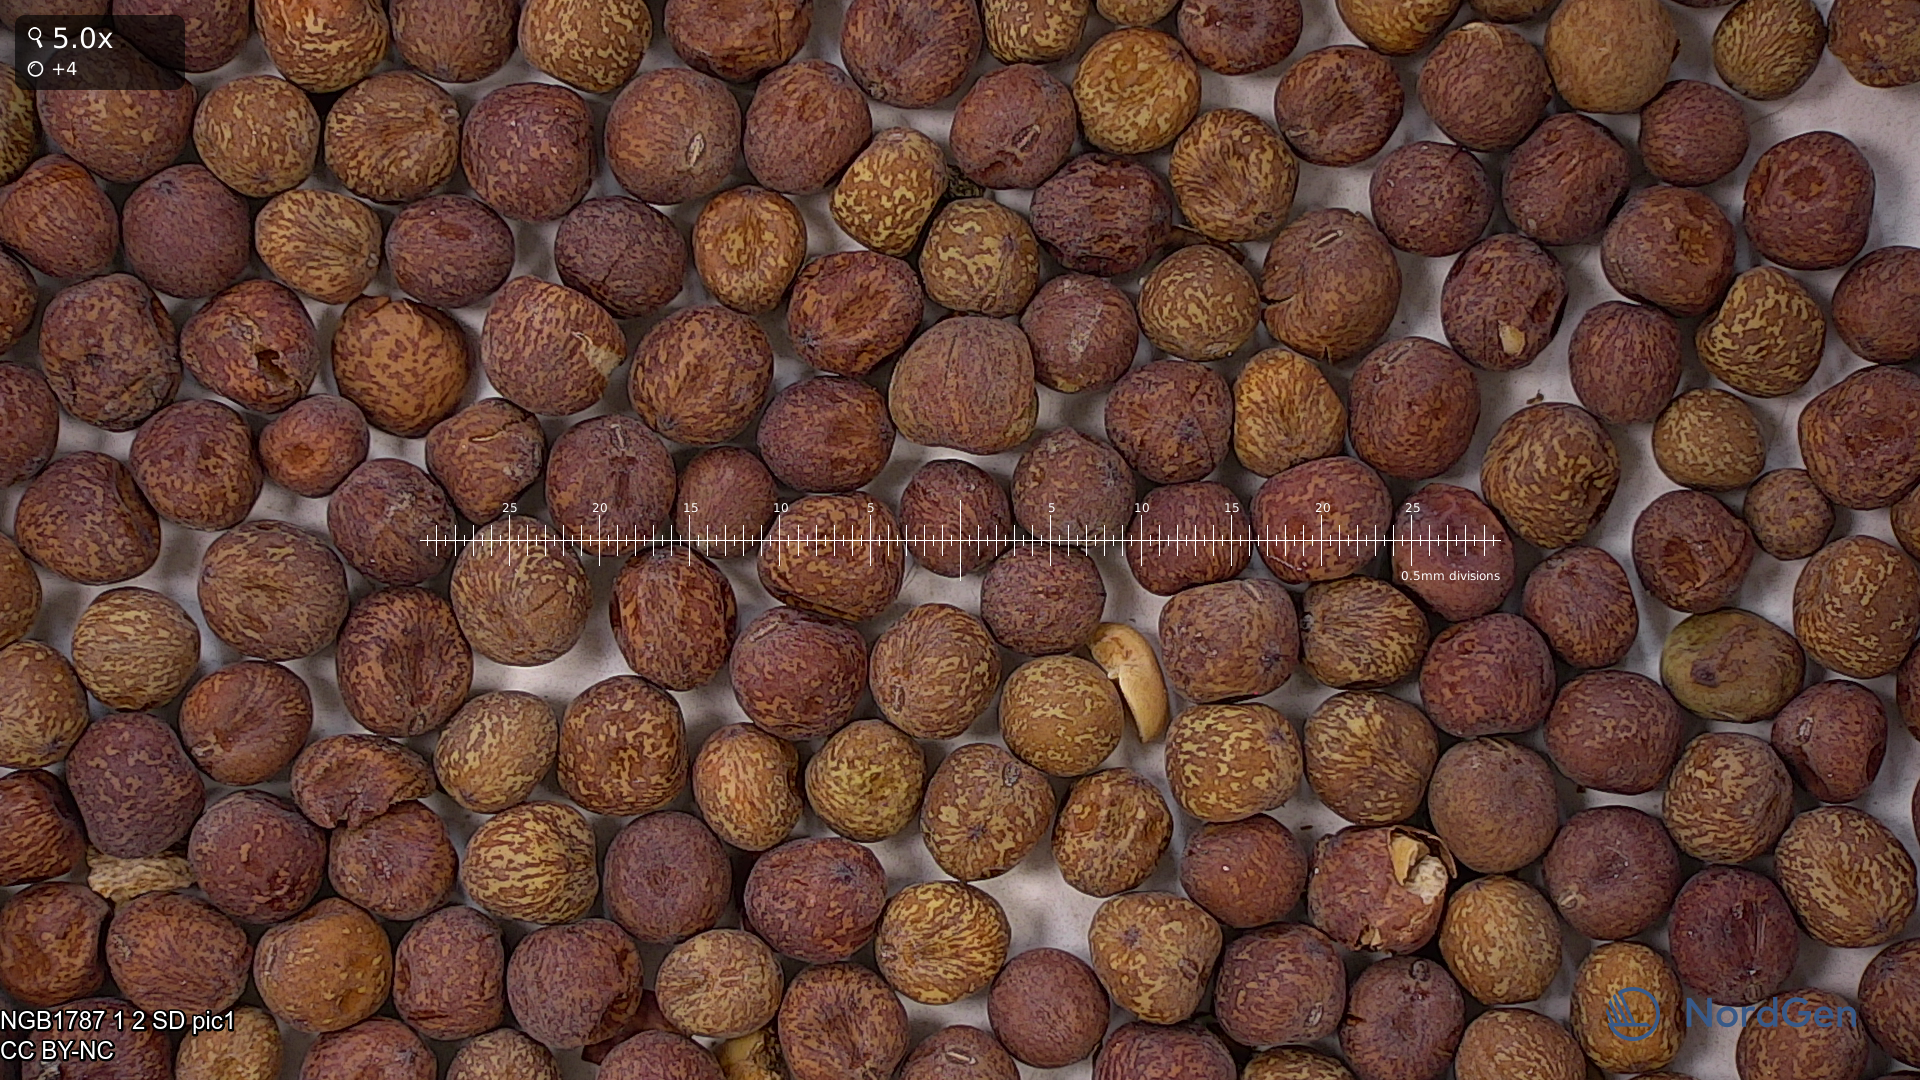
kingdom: Plantae
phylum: Tracheophyta
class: Magnoliopsida
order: Fabales
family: Fabaceae
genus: Lathyrus
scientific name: Lathyrus oleraceus
